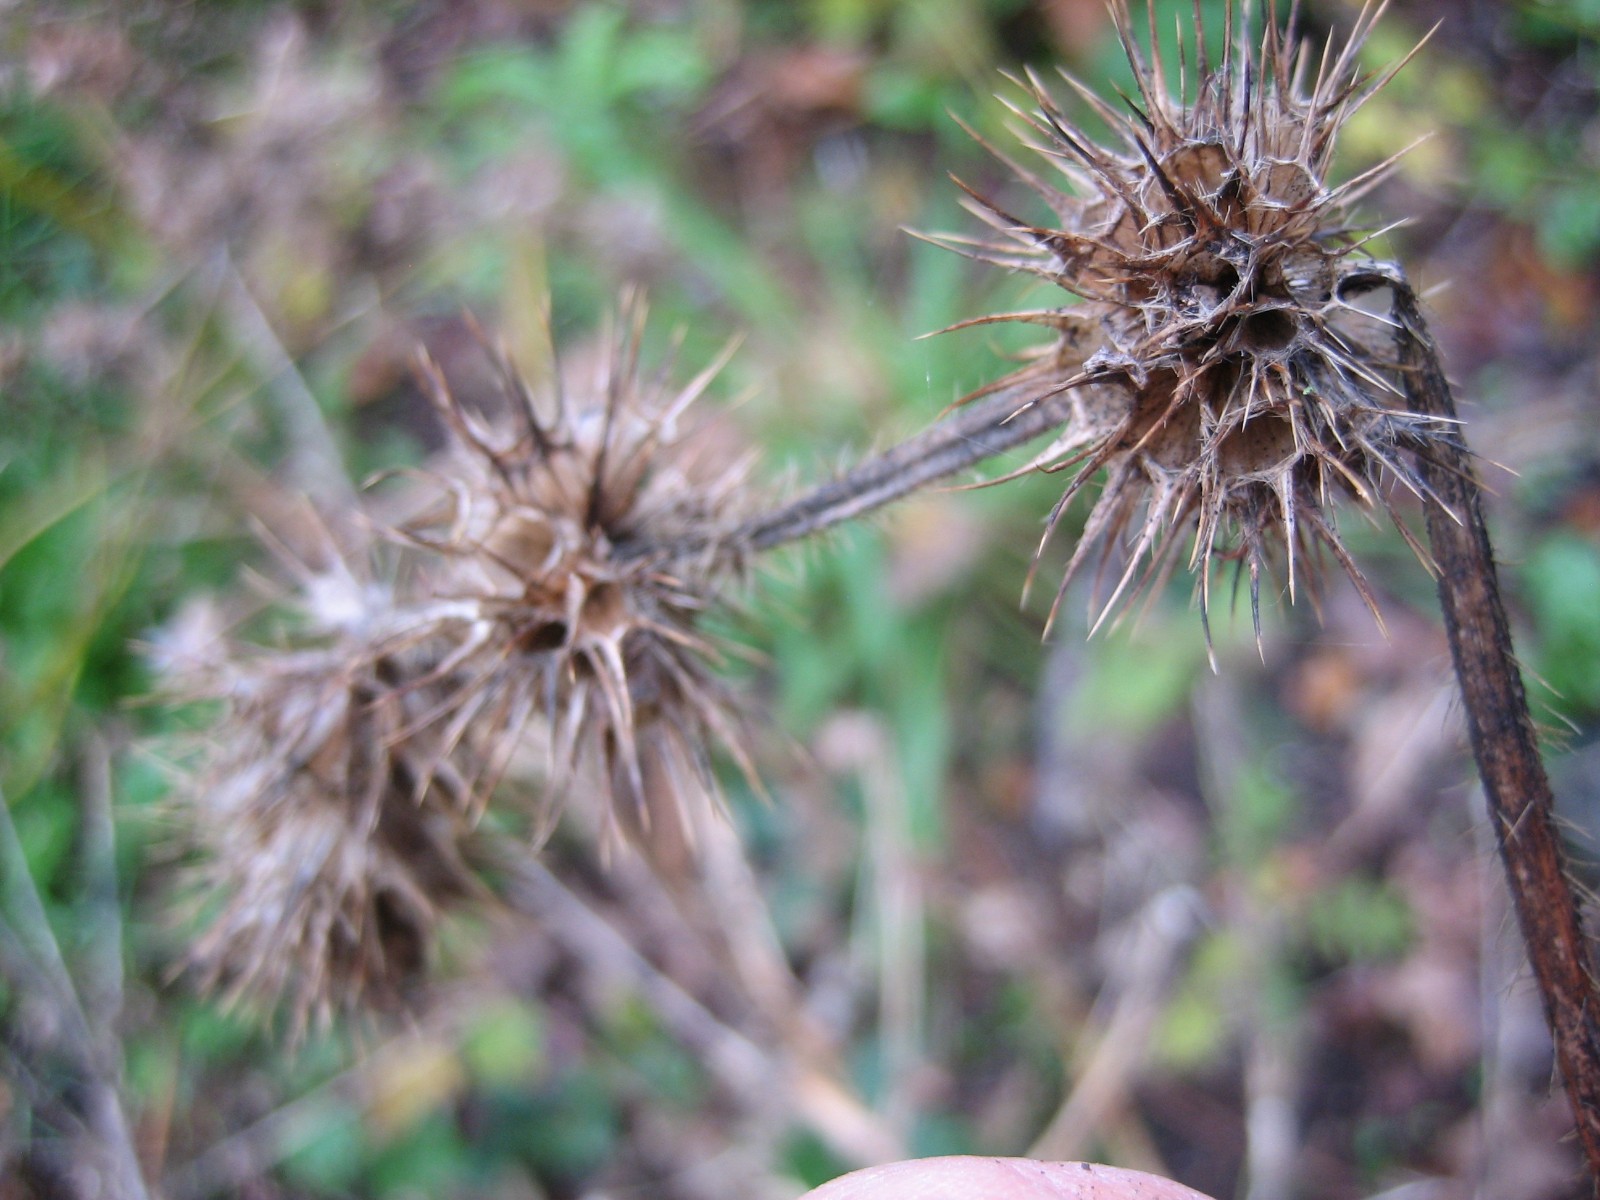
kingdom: Fungi
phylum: Ascomycota
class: Leotiomycetes
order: Helotiales
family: Sclerotiniaceae
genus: Botrytis
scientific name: Botrytis
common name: gråskimmel
